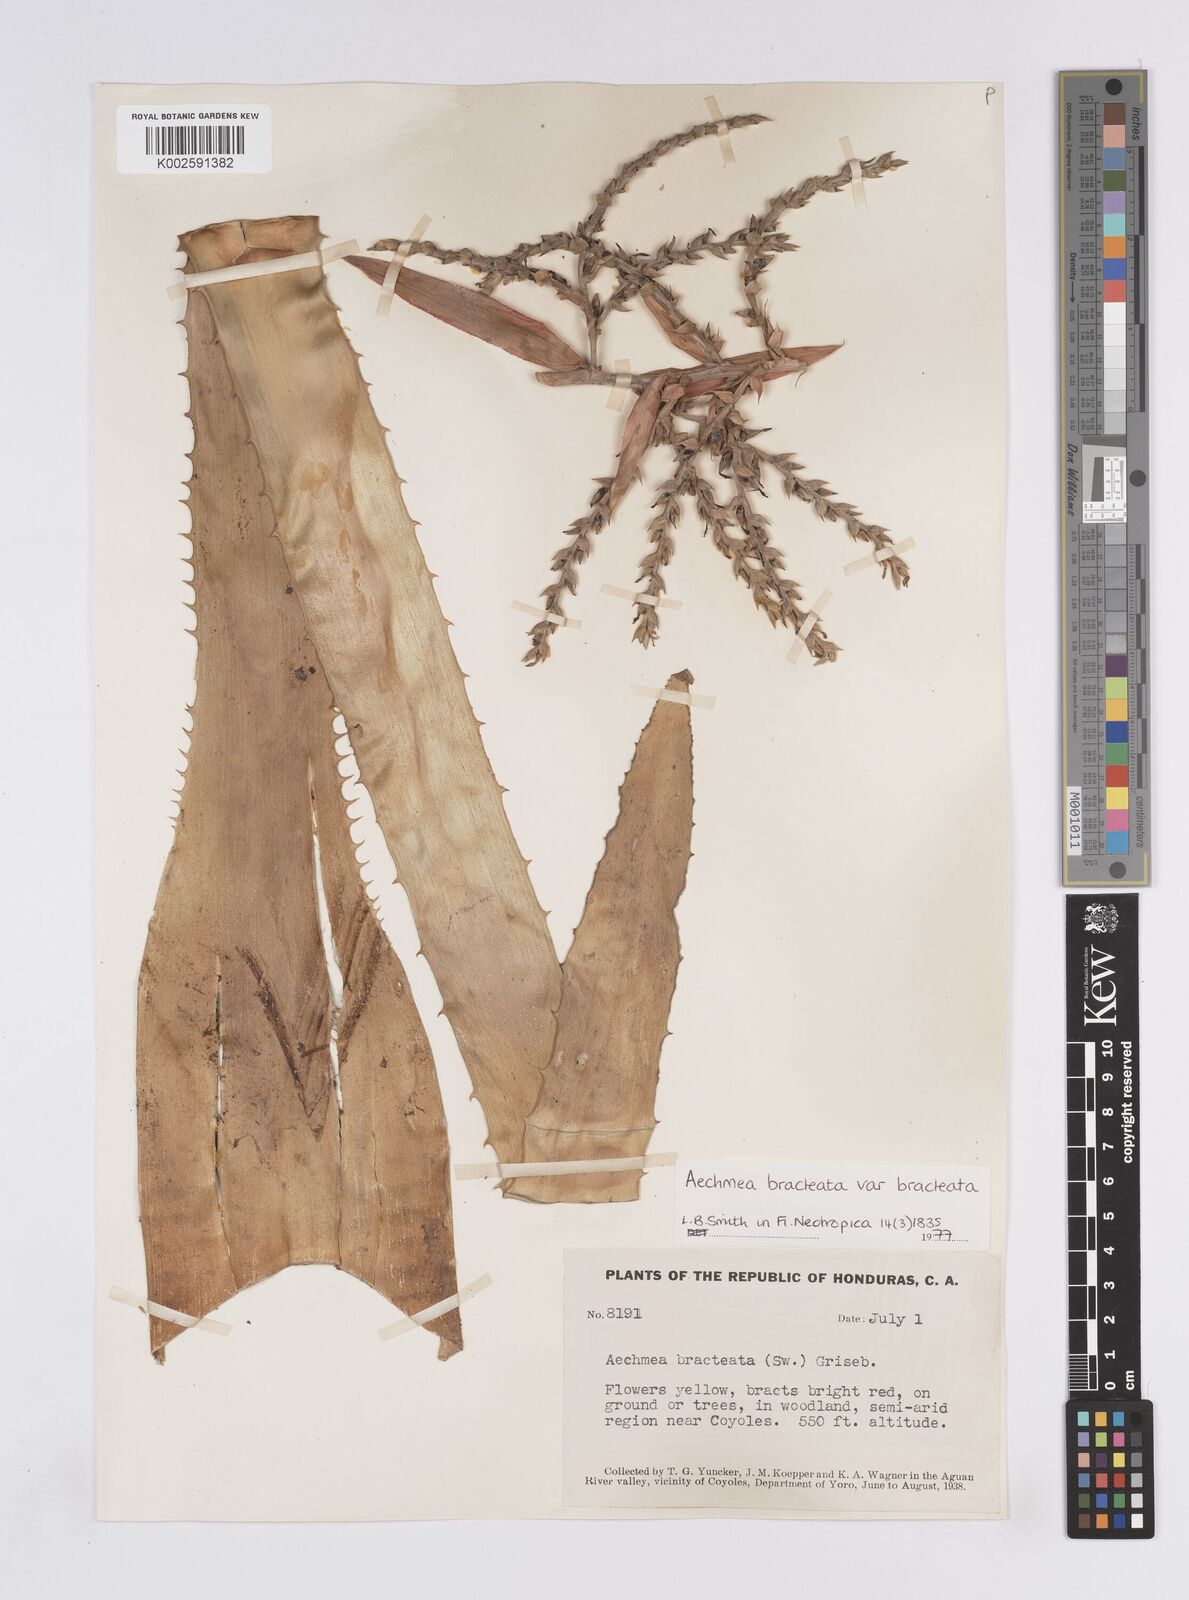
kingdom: Plantae
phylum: Tracheophyta
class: Liliopsida
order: Poales
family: Bromeliaceae
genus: Aechmea
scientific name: Aechmea bracteata
